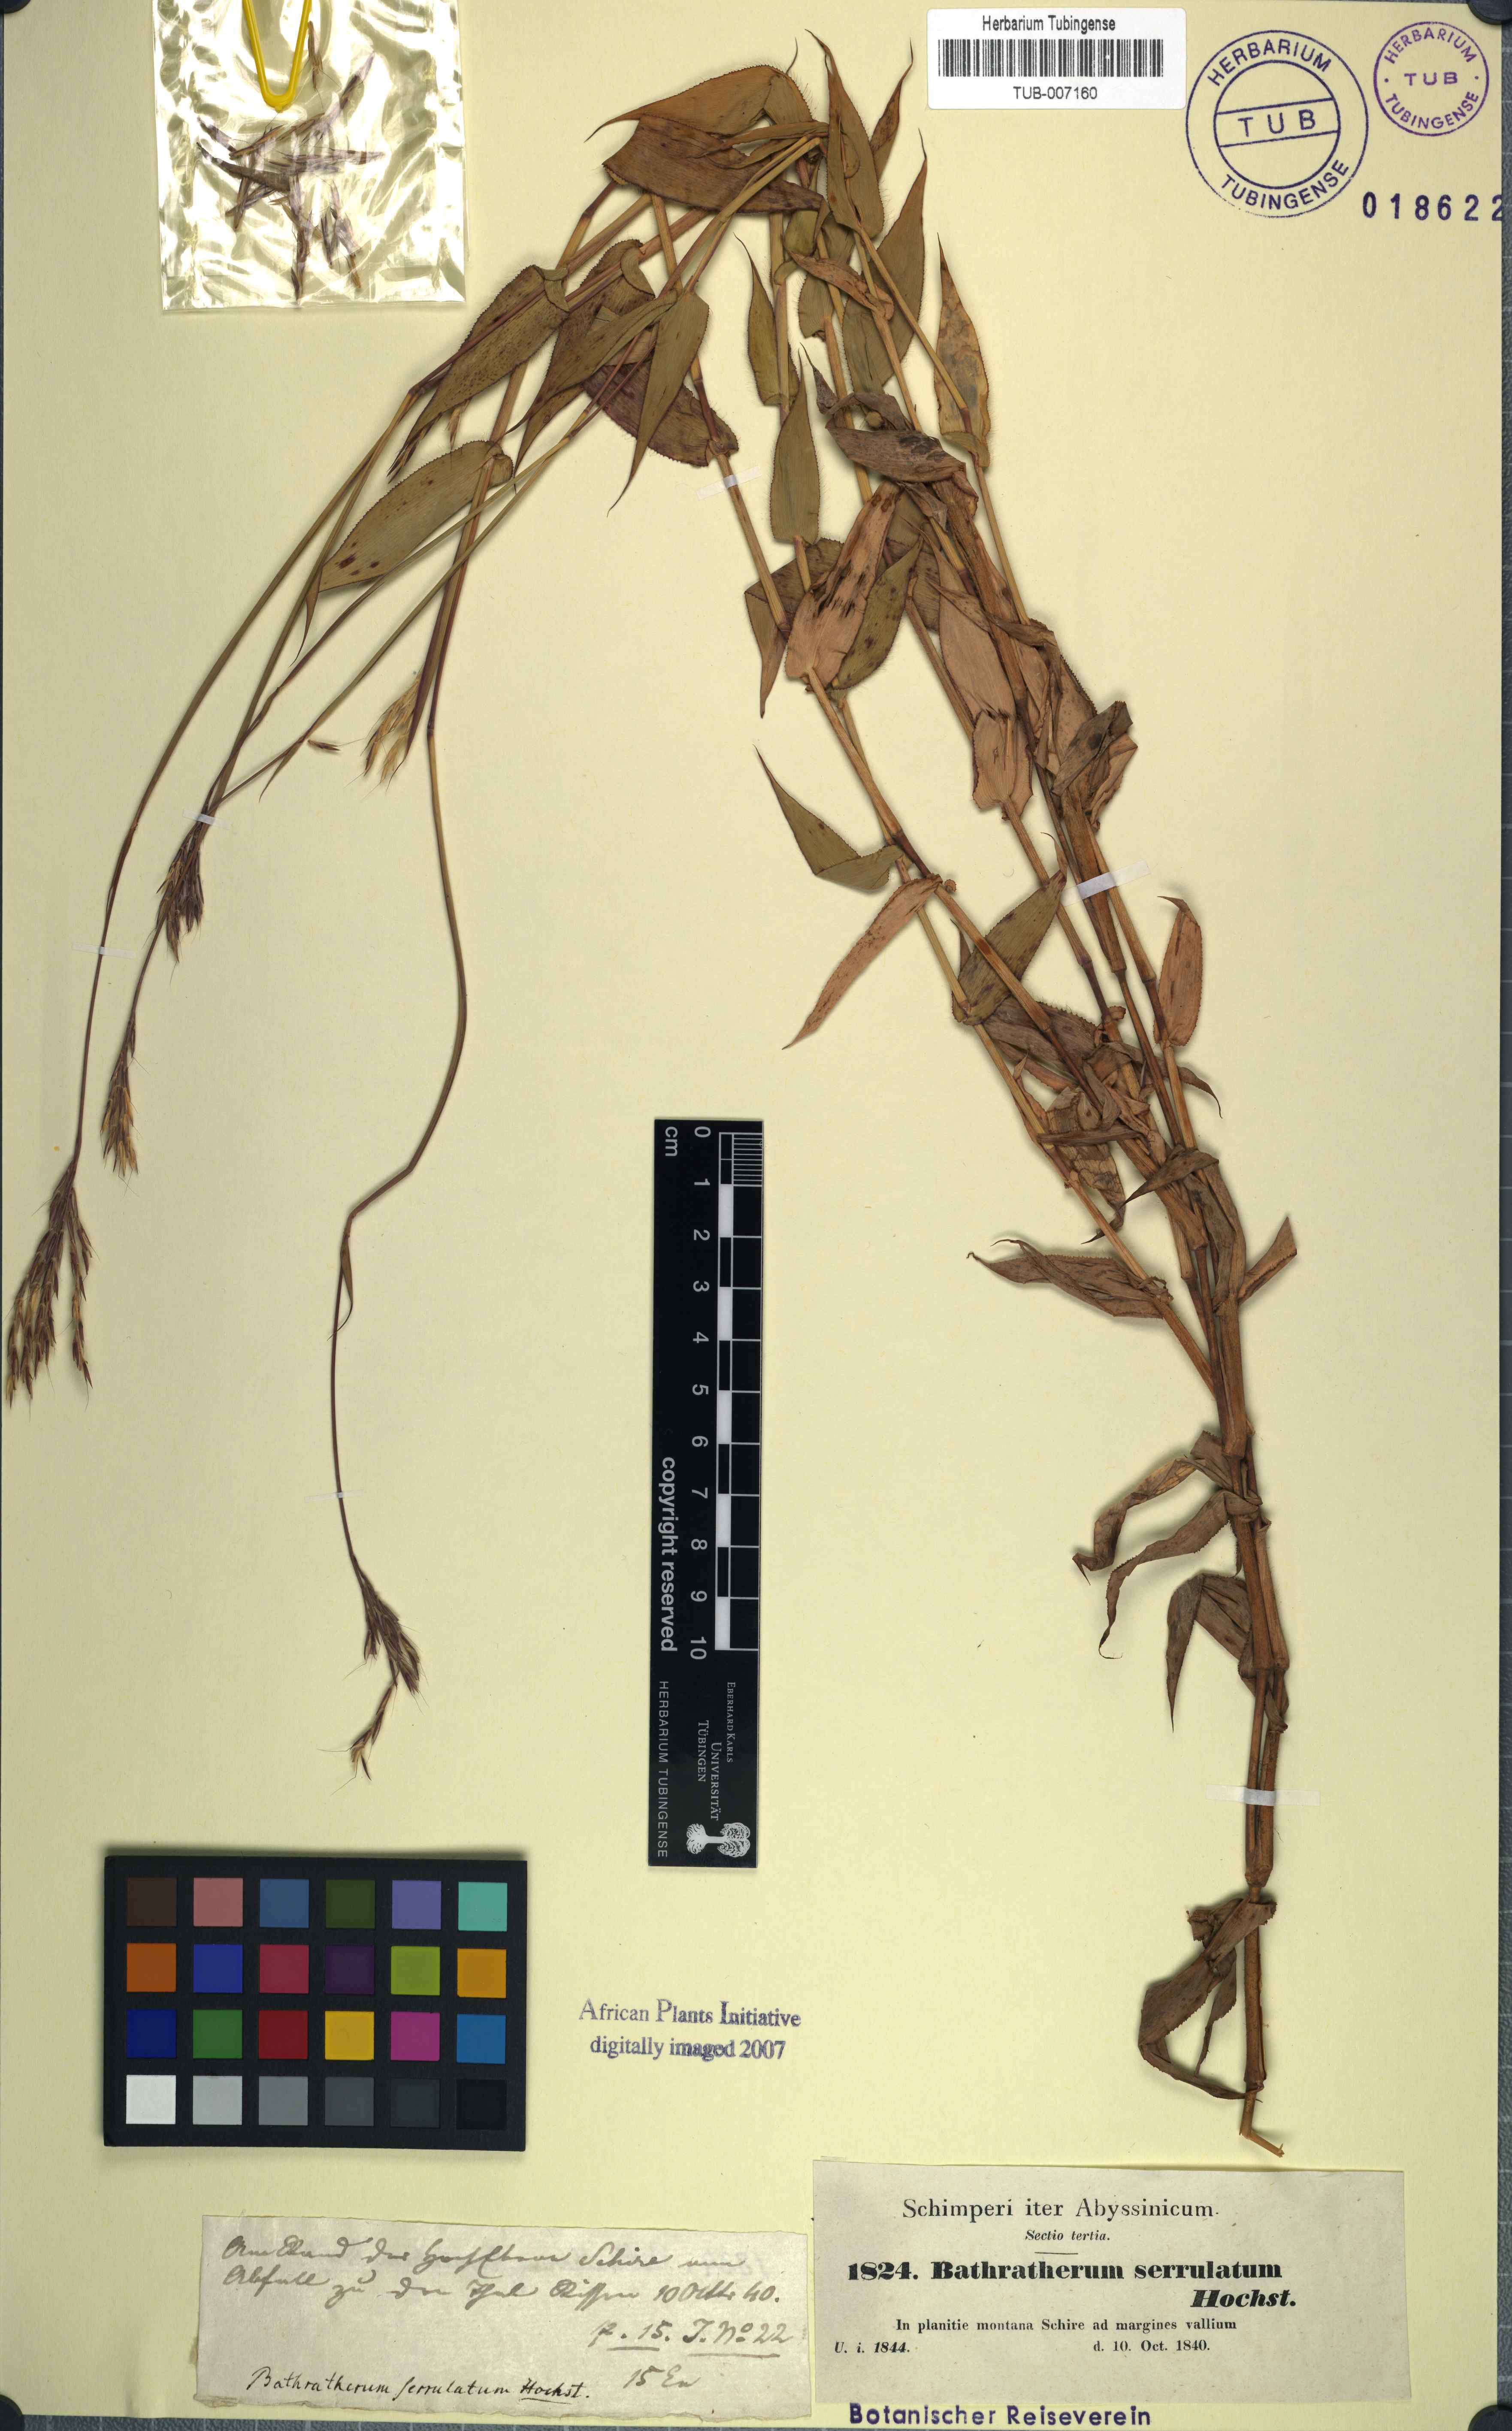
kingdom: Plantae
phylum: Tracheophyta
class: Liliopsida
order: Poales
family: Poaceae
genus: Arthraxon
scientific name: Arthraxon lanceolatus
